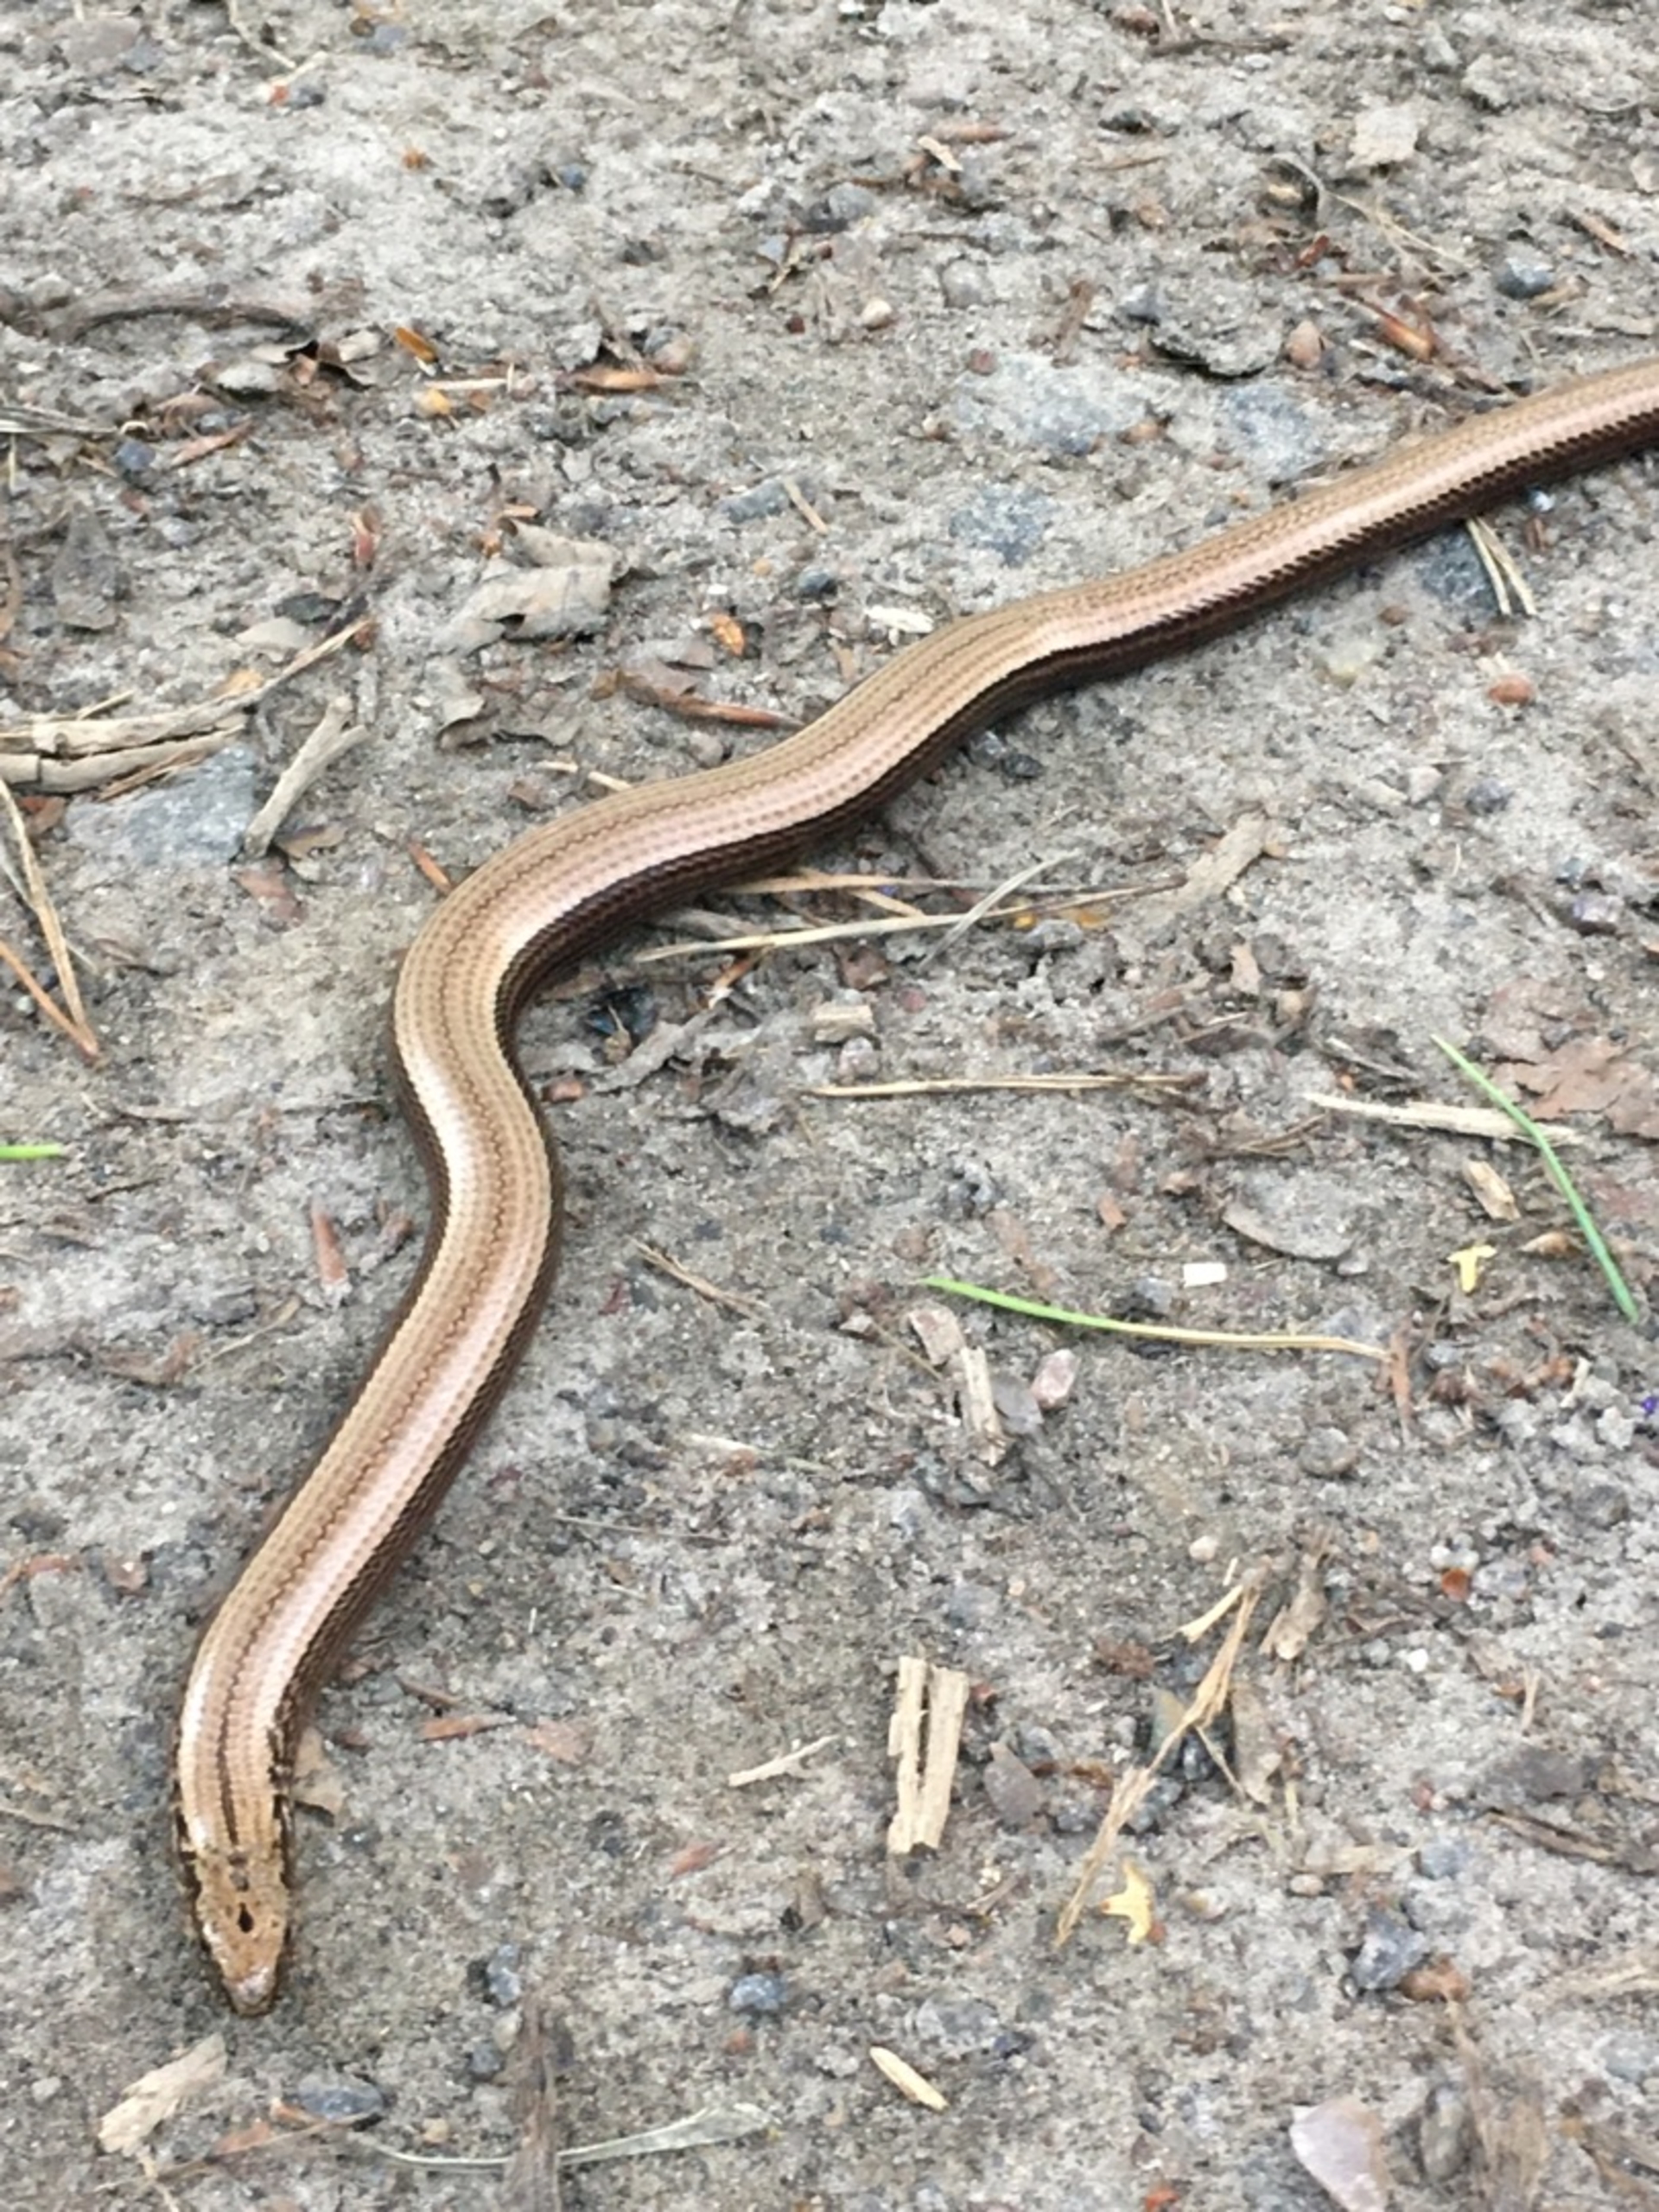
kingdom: Animalia
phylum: Chordata
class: Squamata
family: Anguidae
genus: Anguis
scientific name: Anguis fragilis
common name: Stålorm
